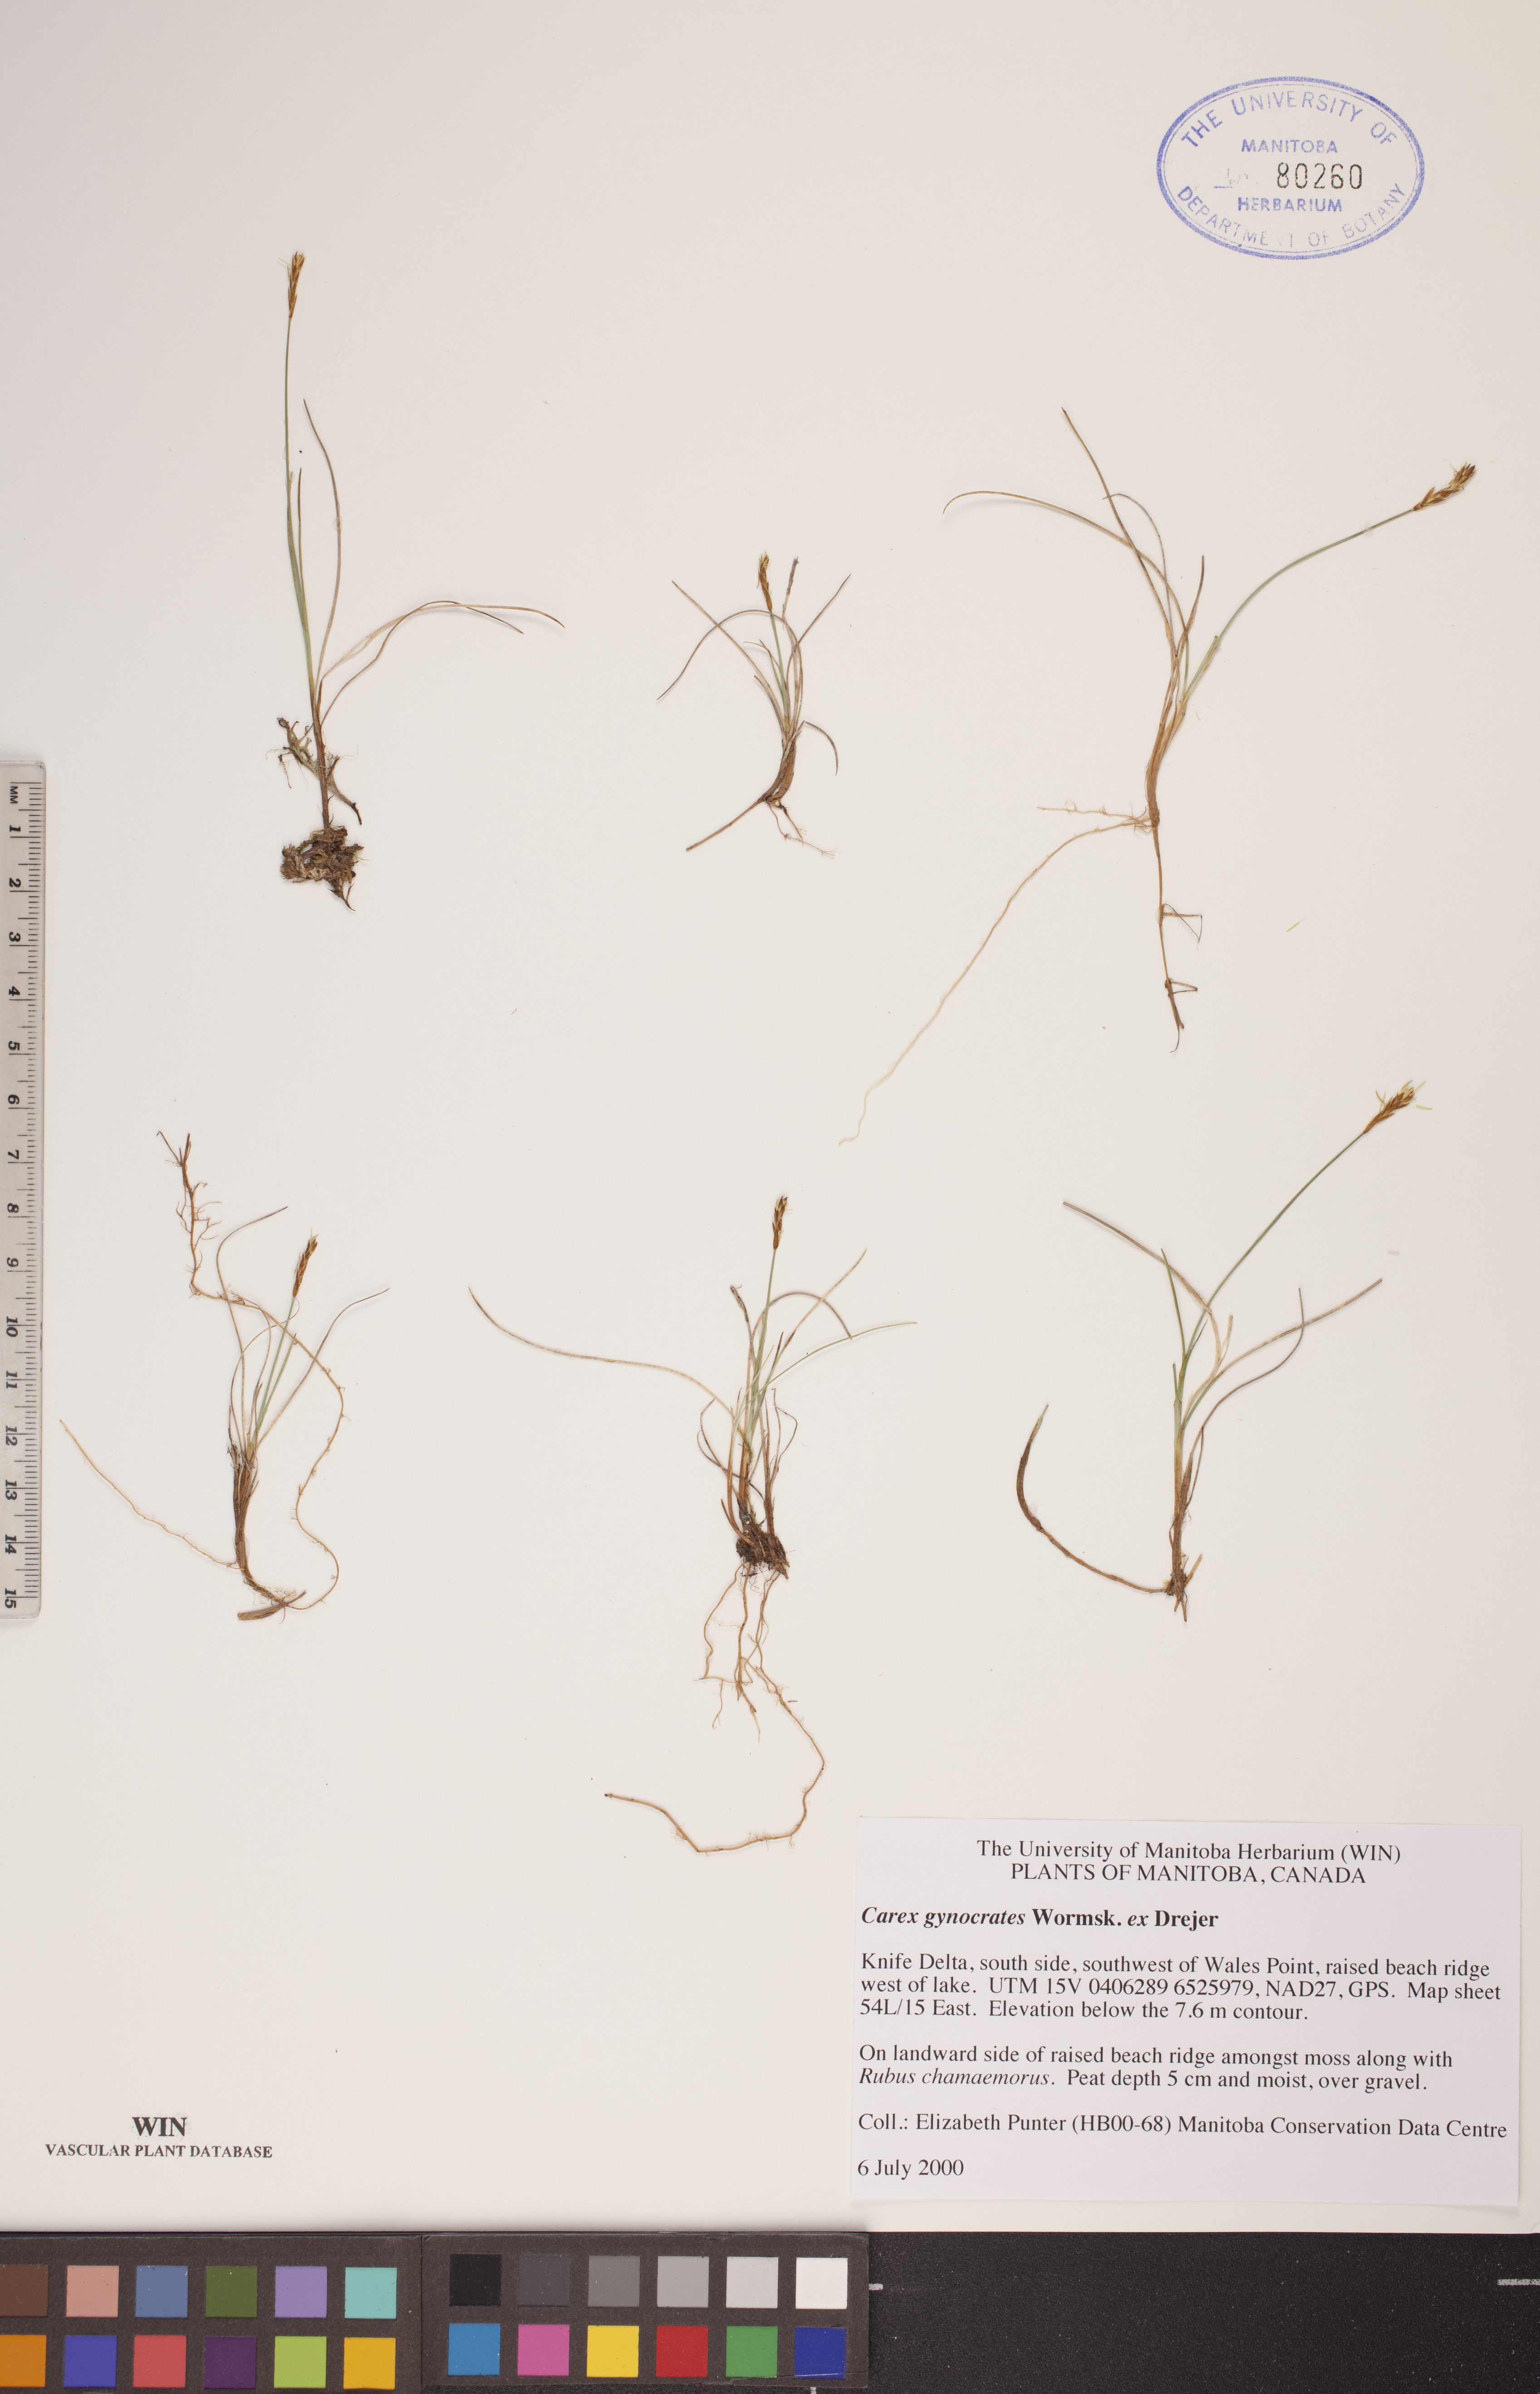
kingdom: Plantae
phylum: Tracheophyta
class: Liliopsida
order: Poales
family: Cyperaceae
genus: Carex
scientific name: Carex nardina
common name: Nard sedge
